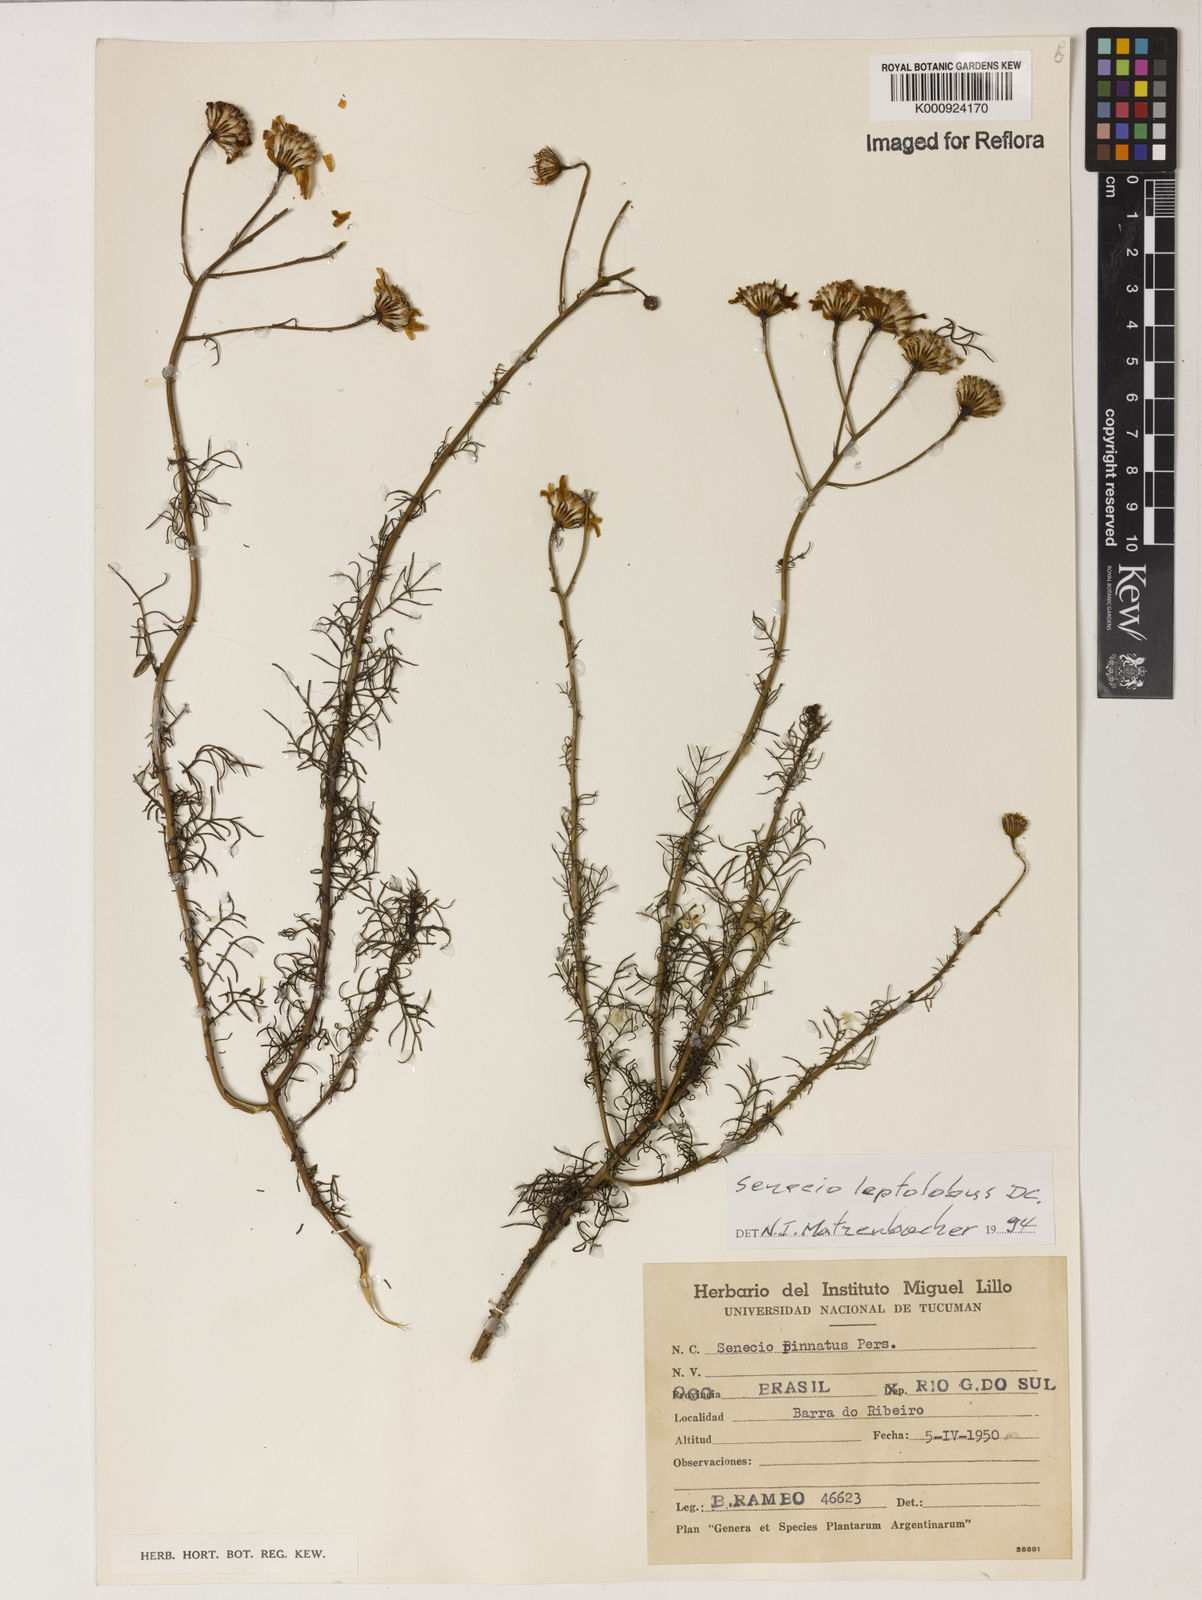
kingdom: Plantae
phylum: Tracheophyta
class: Magnoliopsida
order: Asterales
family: Asteraceae
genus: Senecio
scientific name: Senecio leptolobus
